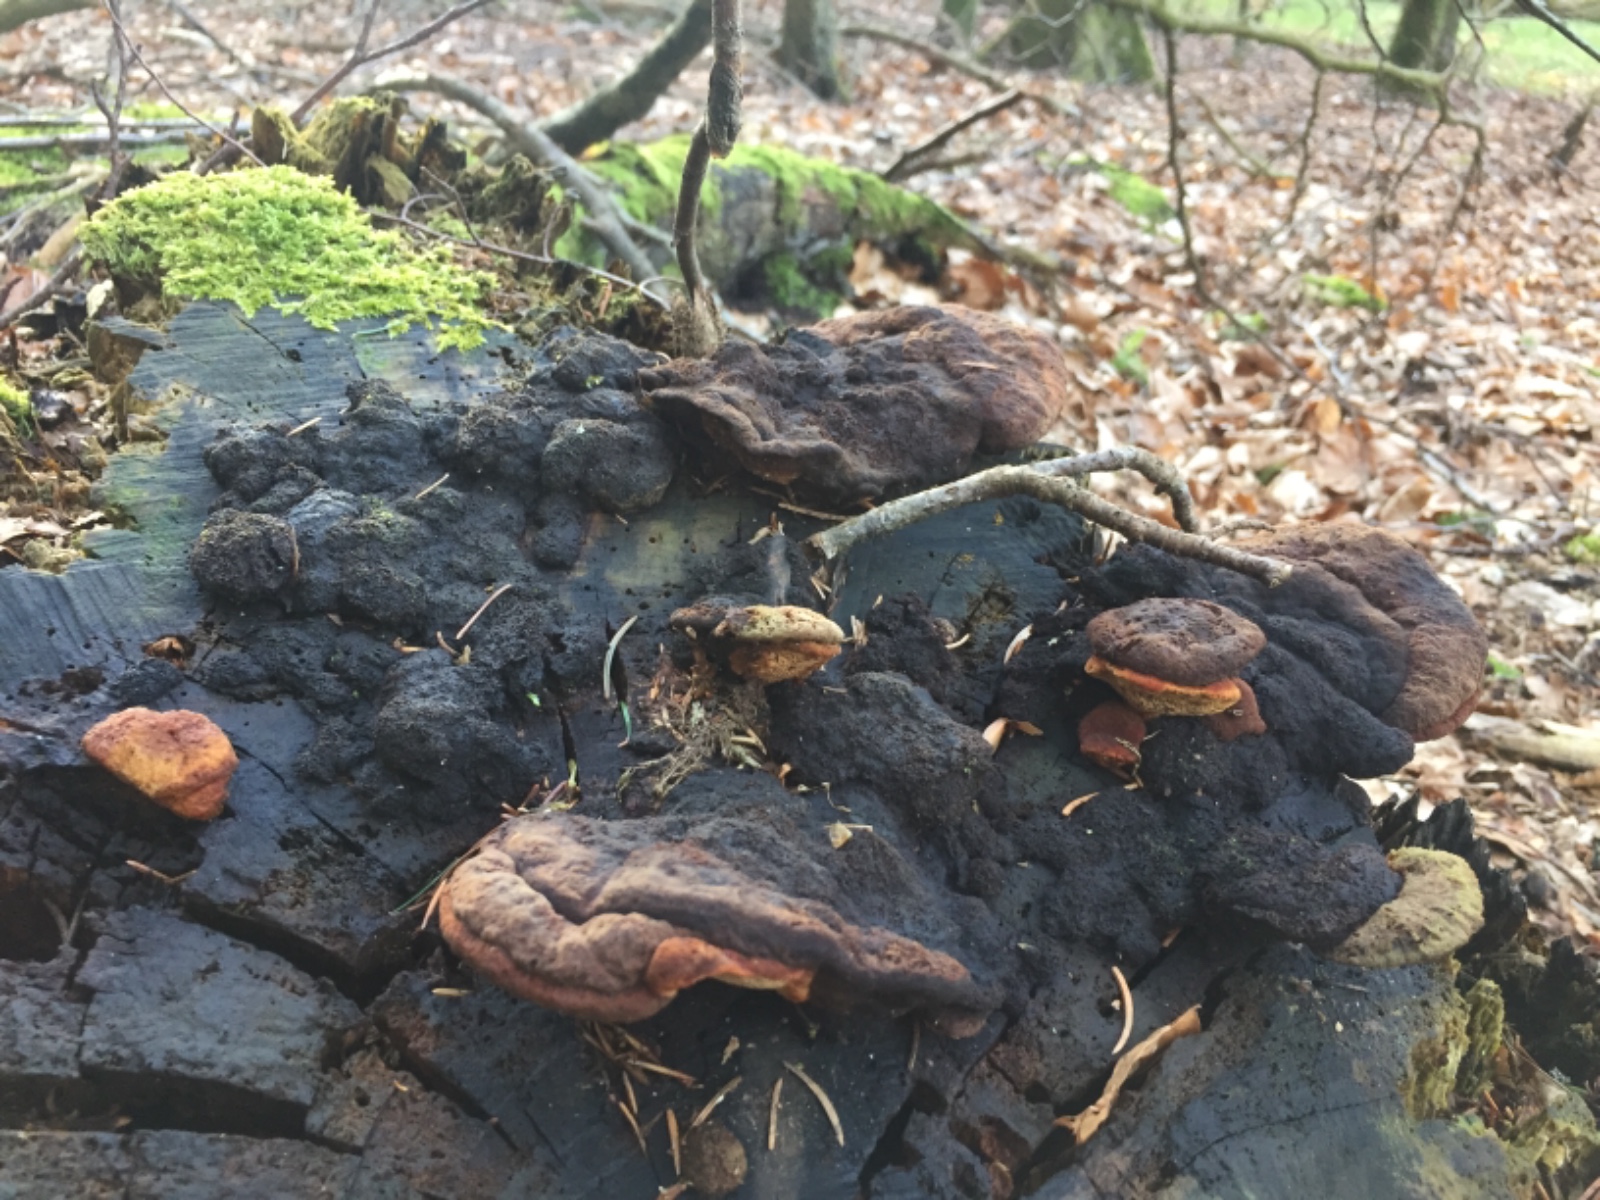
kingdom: Fungi
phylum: Basidiomycota
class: Agaricomycetes
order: Gloeophyllales
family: Gloeophyllaceae
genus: Gloeophyllum
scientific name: Gloeophyllum odoratum
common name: duftende korkhat
